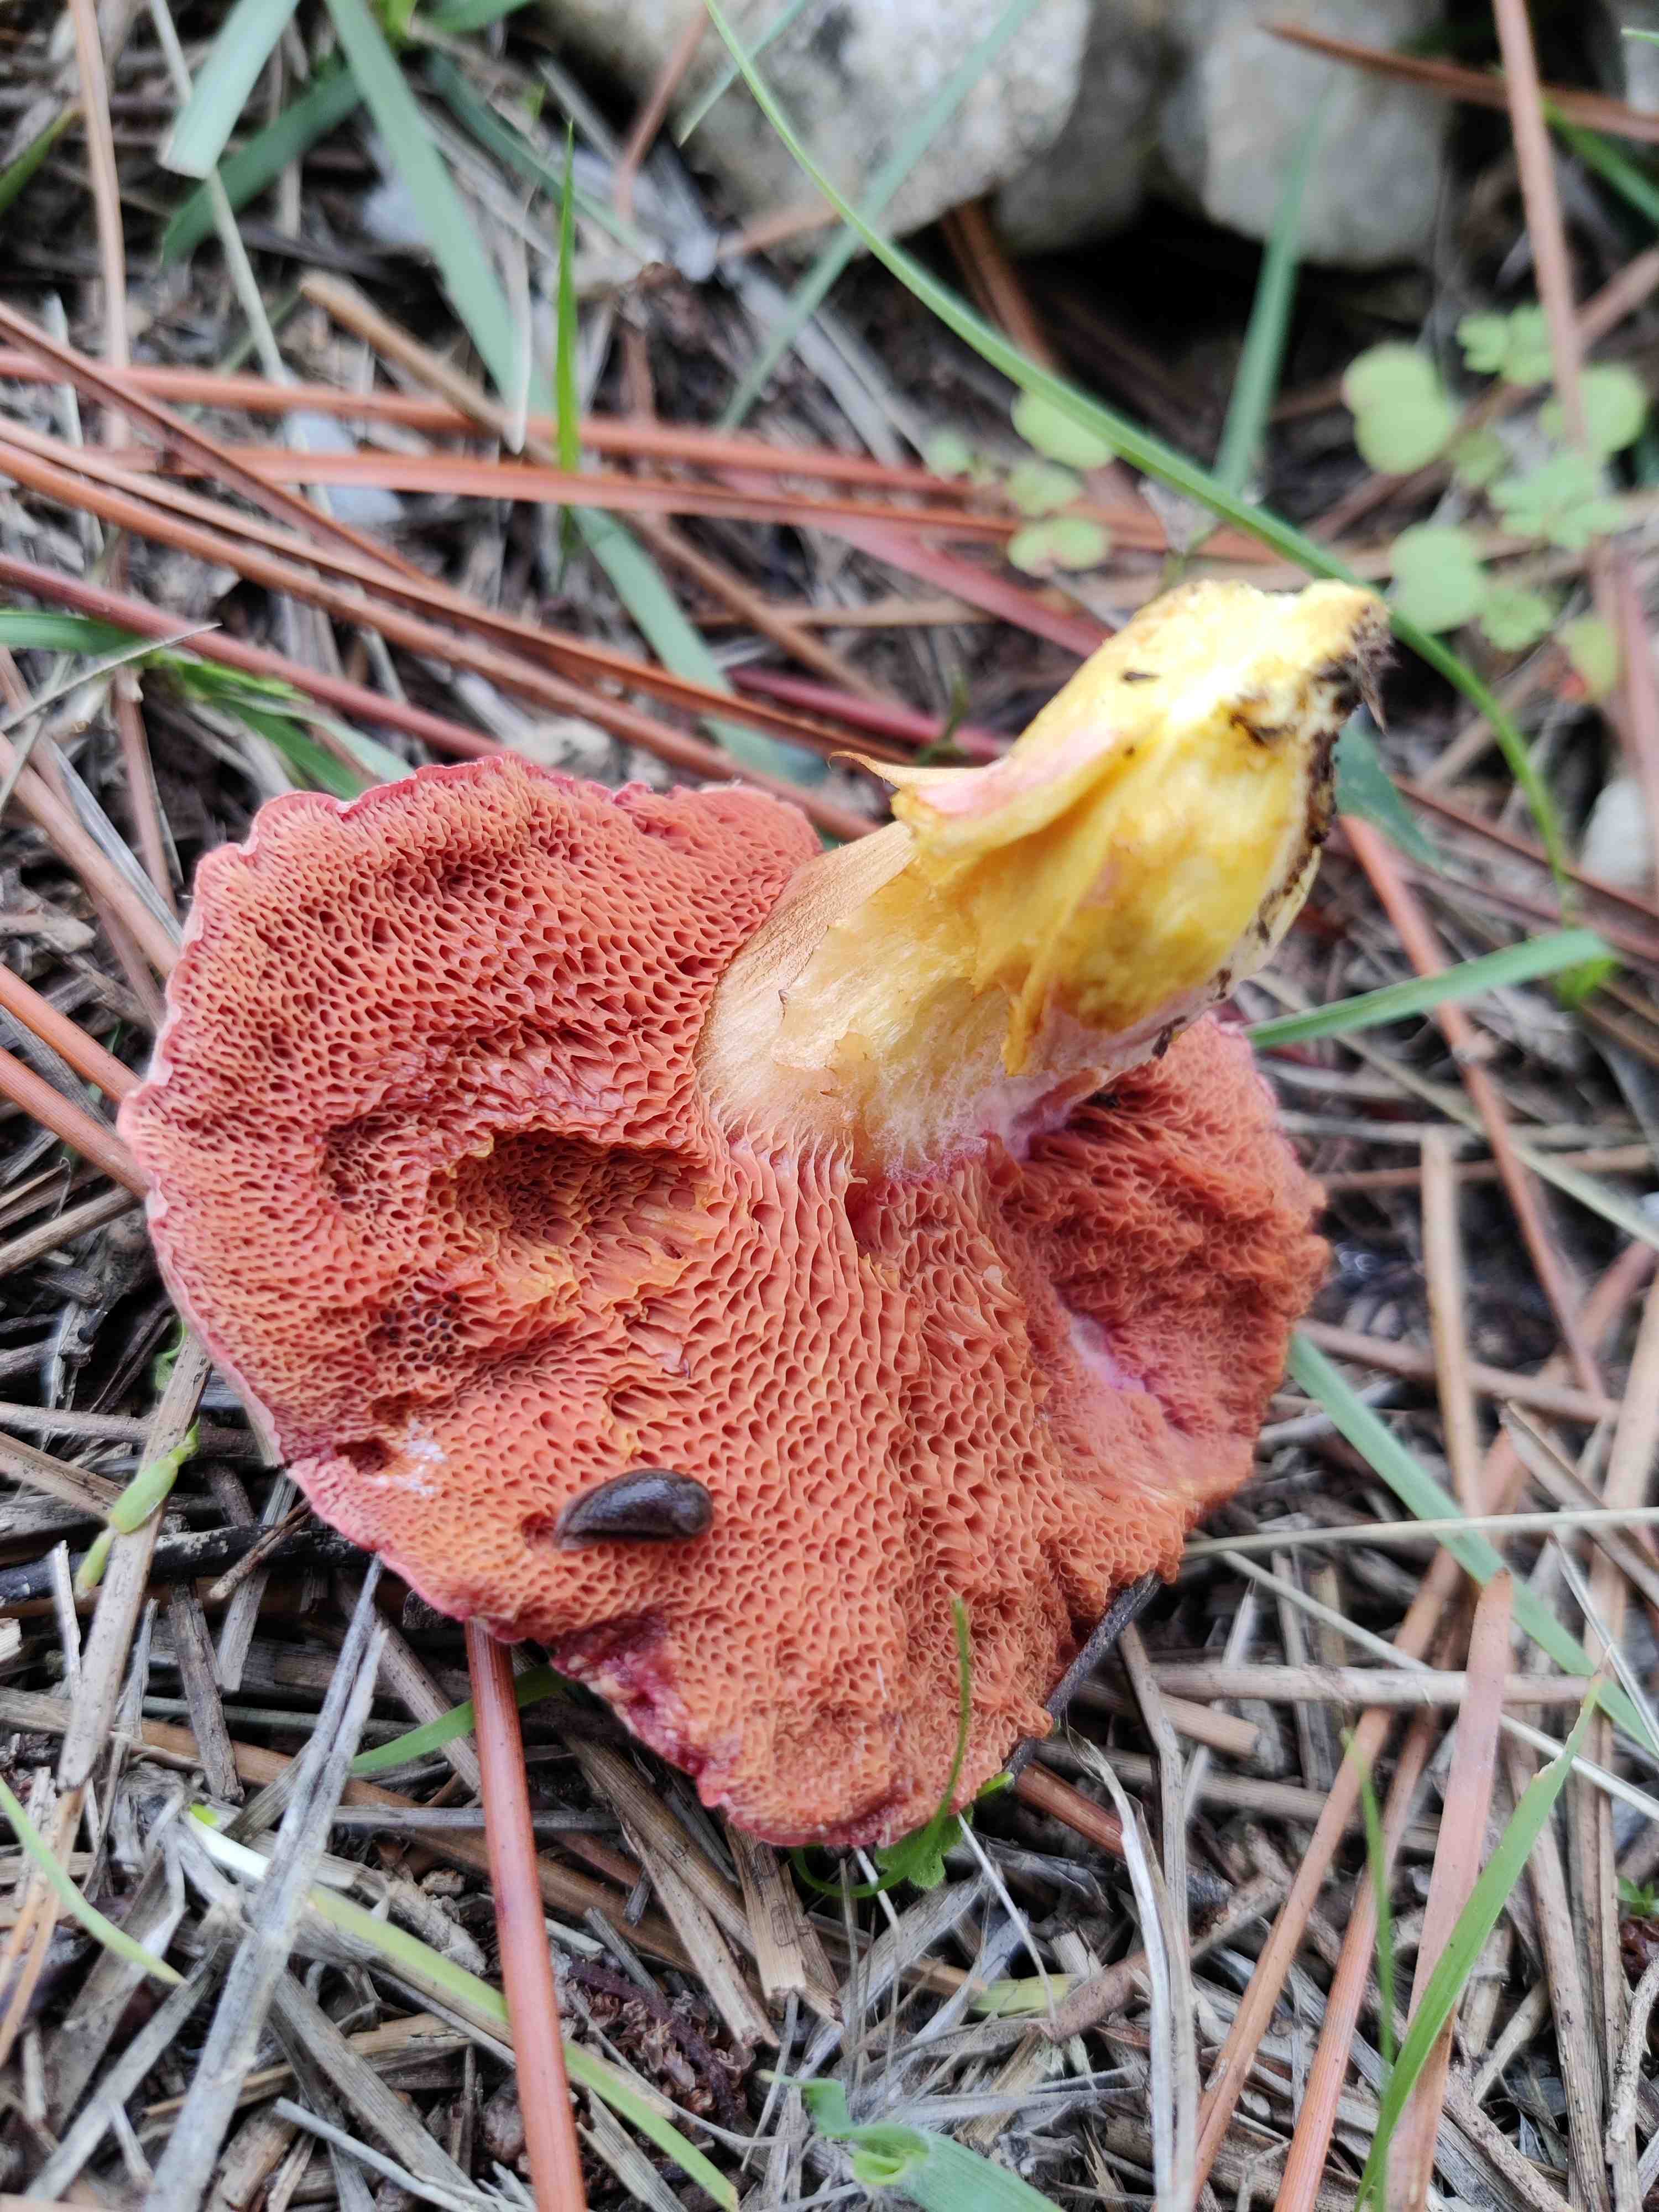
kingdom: Fungi
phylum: Basidiomycota
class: Agaricomycetes
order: Boletales
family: Boletaceae
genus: Chalciporus
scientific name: Chalciporus pseudorubinus
